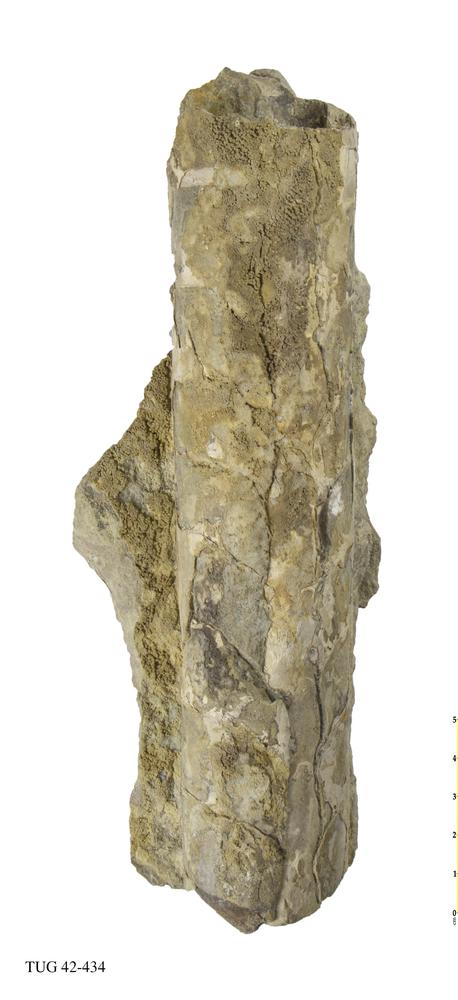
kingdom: Animalia
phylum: Mollusca
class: Cephalopoda
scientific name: Cephalopoda
